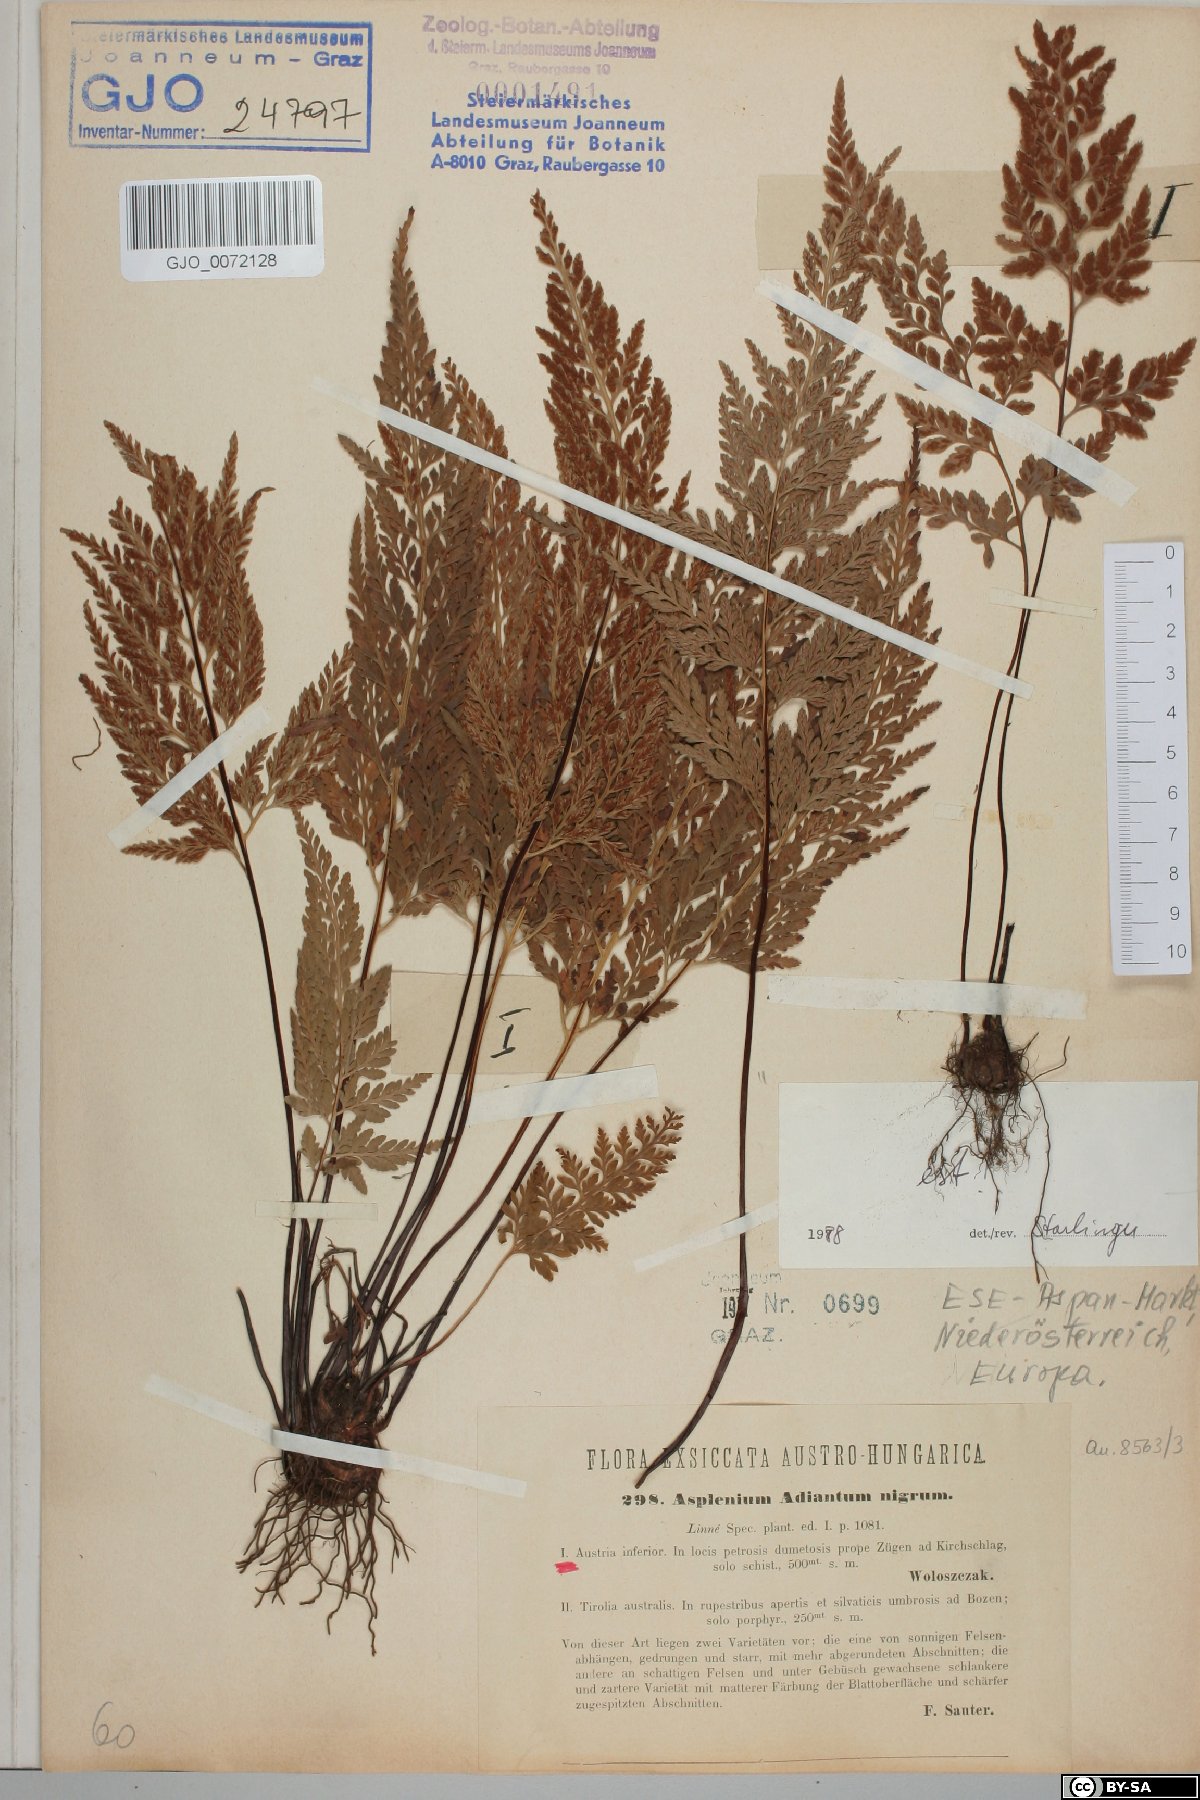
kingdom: Plantae
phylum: Tracheophyta
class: Polypodiopsida
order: Polypodiales
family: Aspleniaceae
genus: Asplenium
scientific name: Asplenium adiantum-nigrum
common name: Black spleenwort
